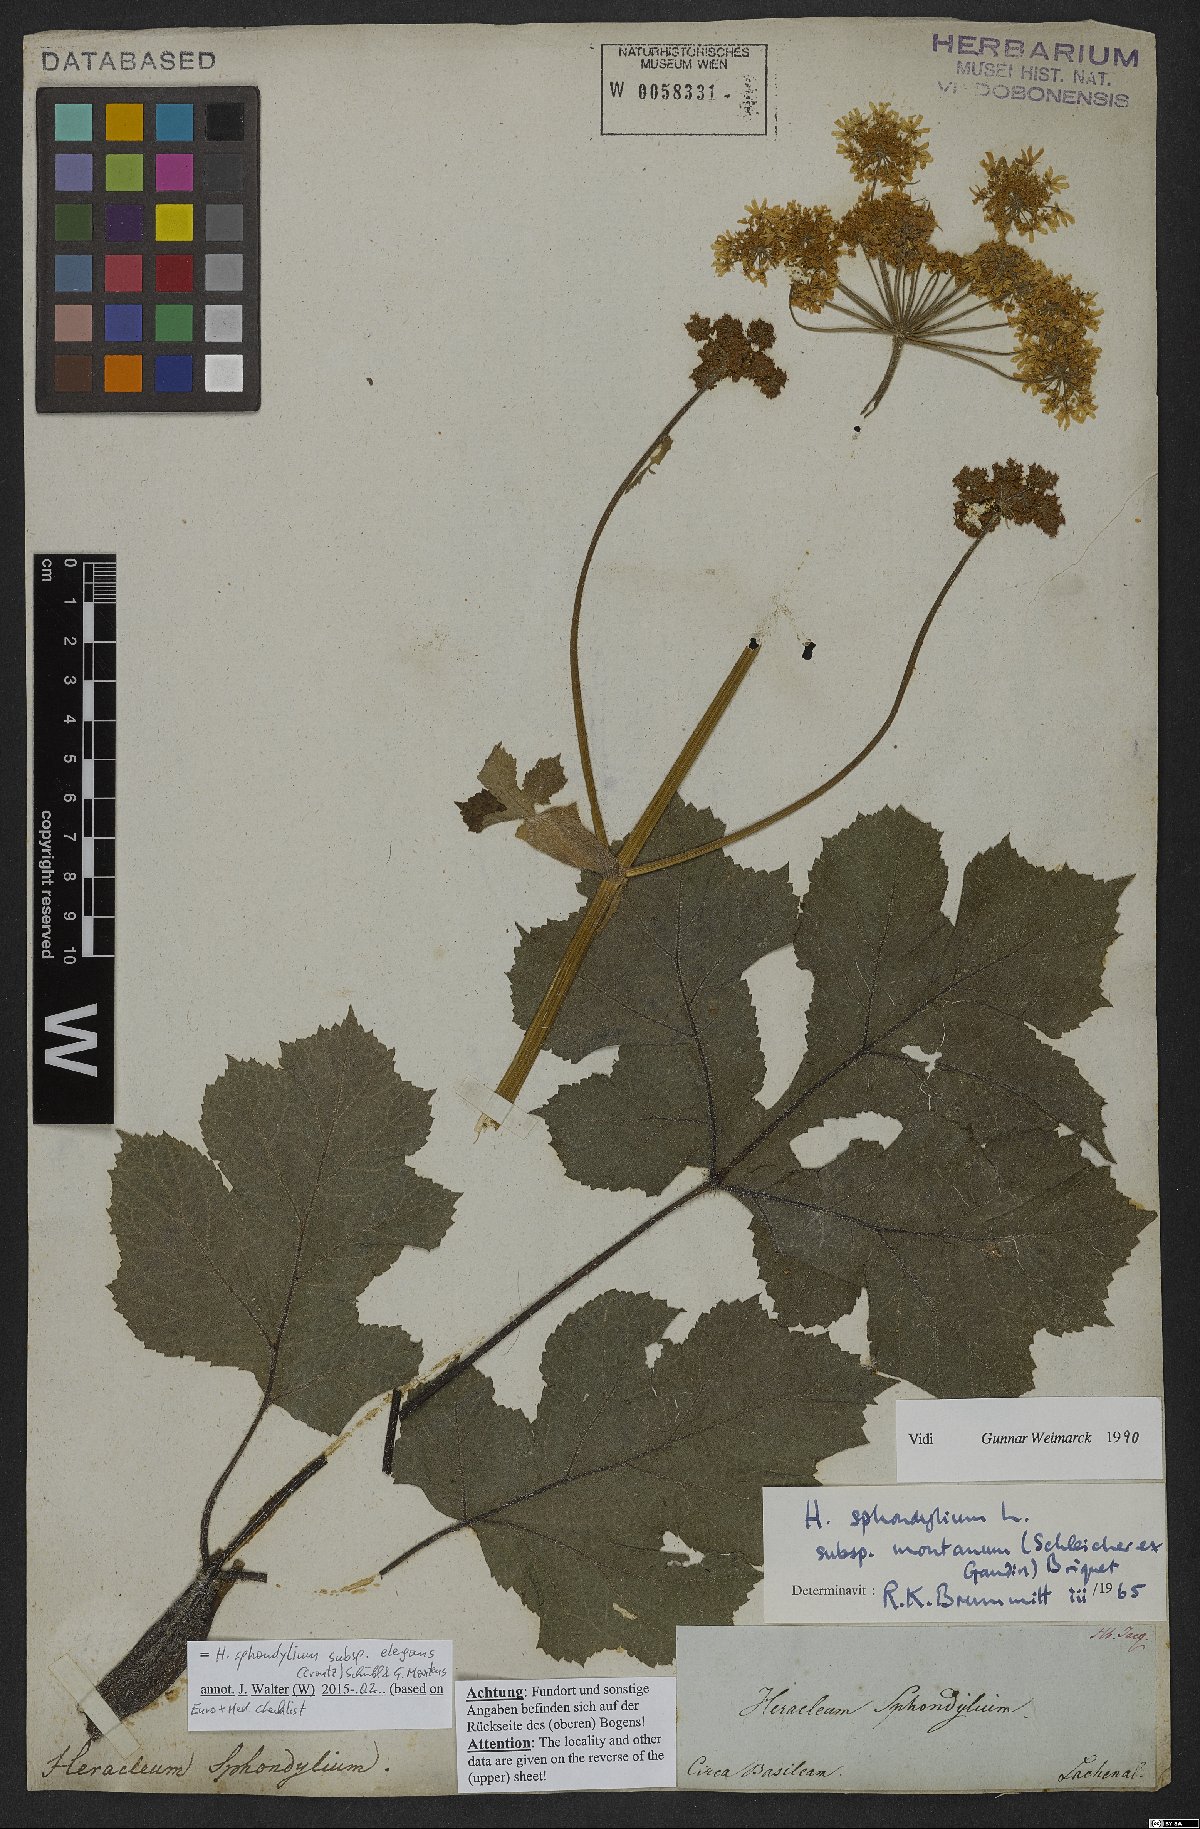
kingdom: Plantae
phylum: Tracheophyta
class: Magnoliopsida
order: Apiales
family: Apiaceae
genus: Heracleum
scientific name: Heracleum sphondylium
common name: Hogweed
